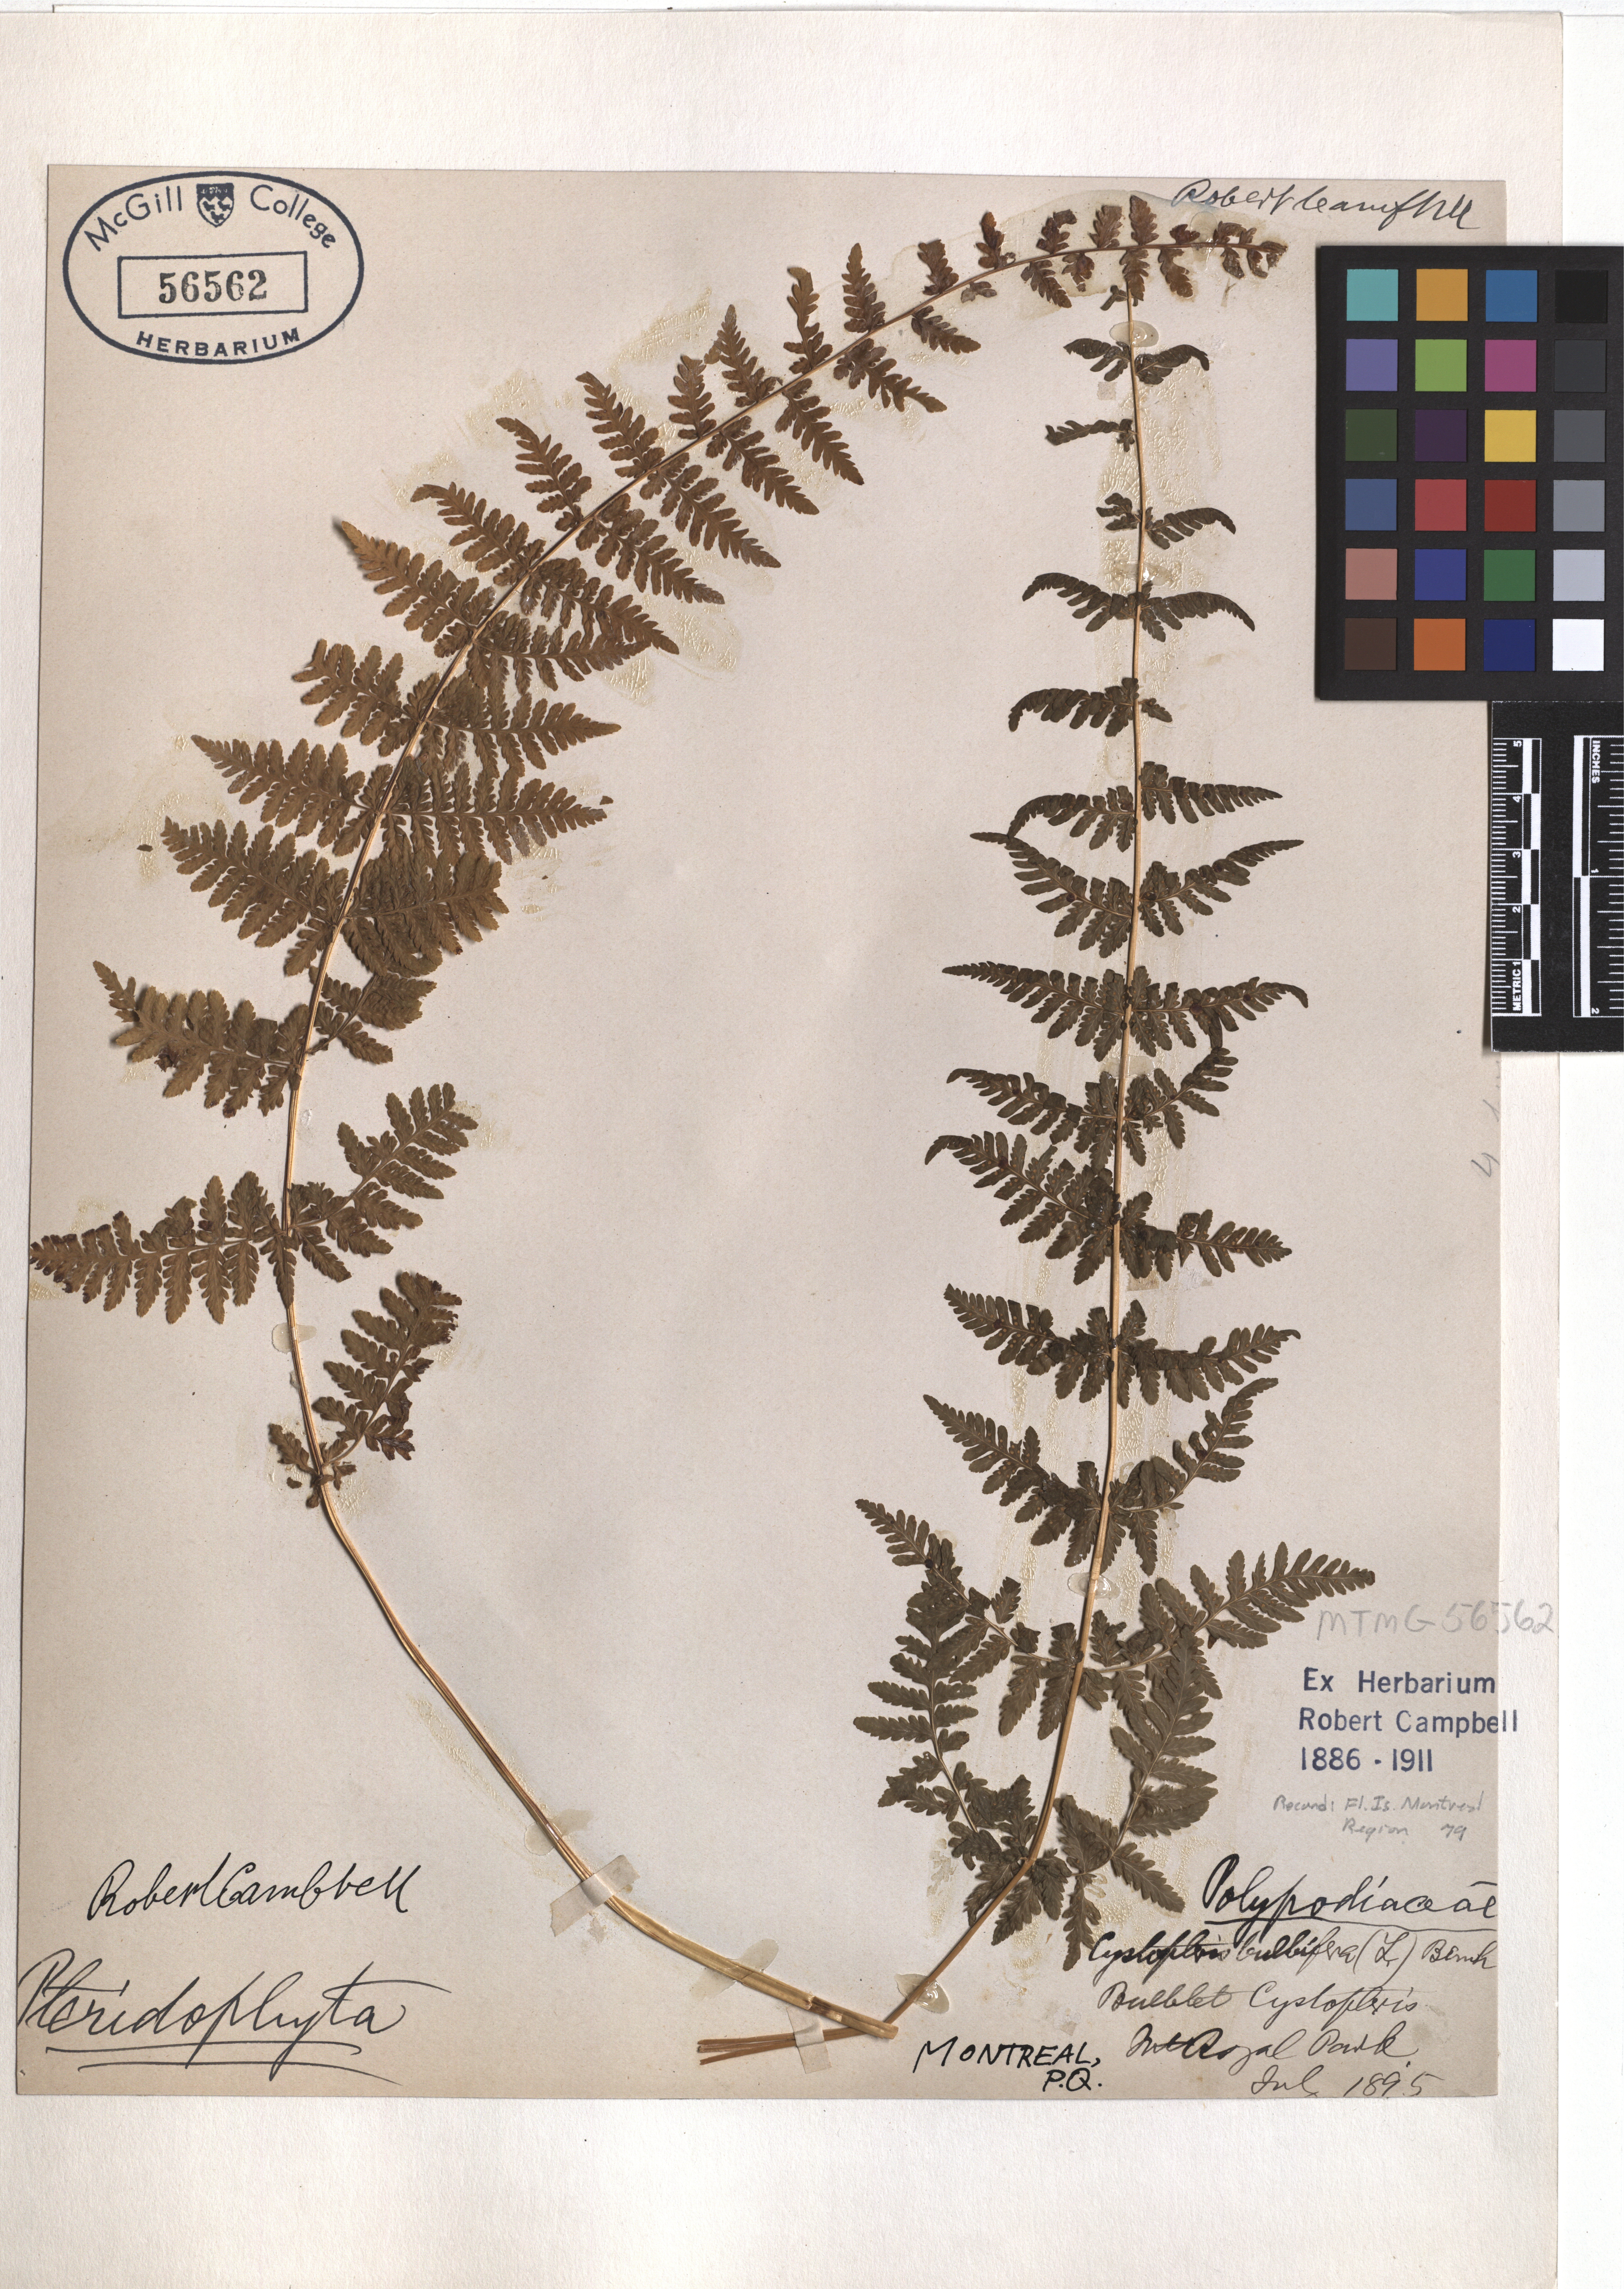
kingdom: Plantae
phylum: Tracheophyta
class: Polypodiopsida
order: Polypodiales
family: Cystopteridaceae
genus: Cystopteris
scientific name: Cystopteris bulbifera
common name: Bulblet bladder fern
